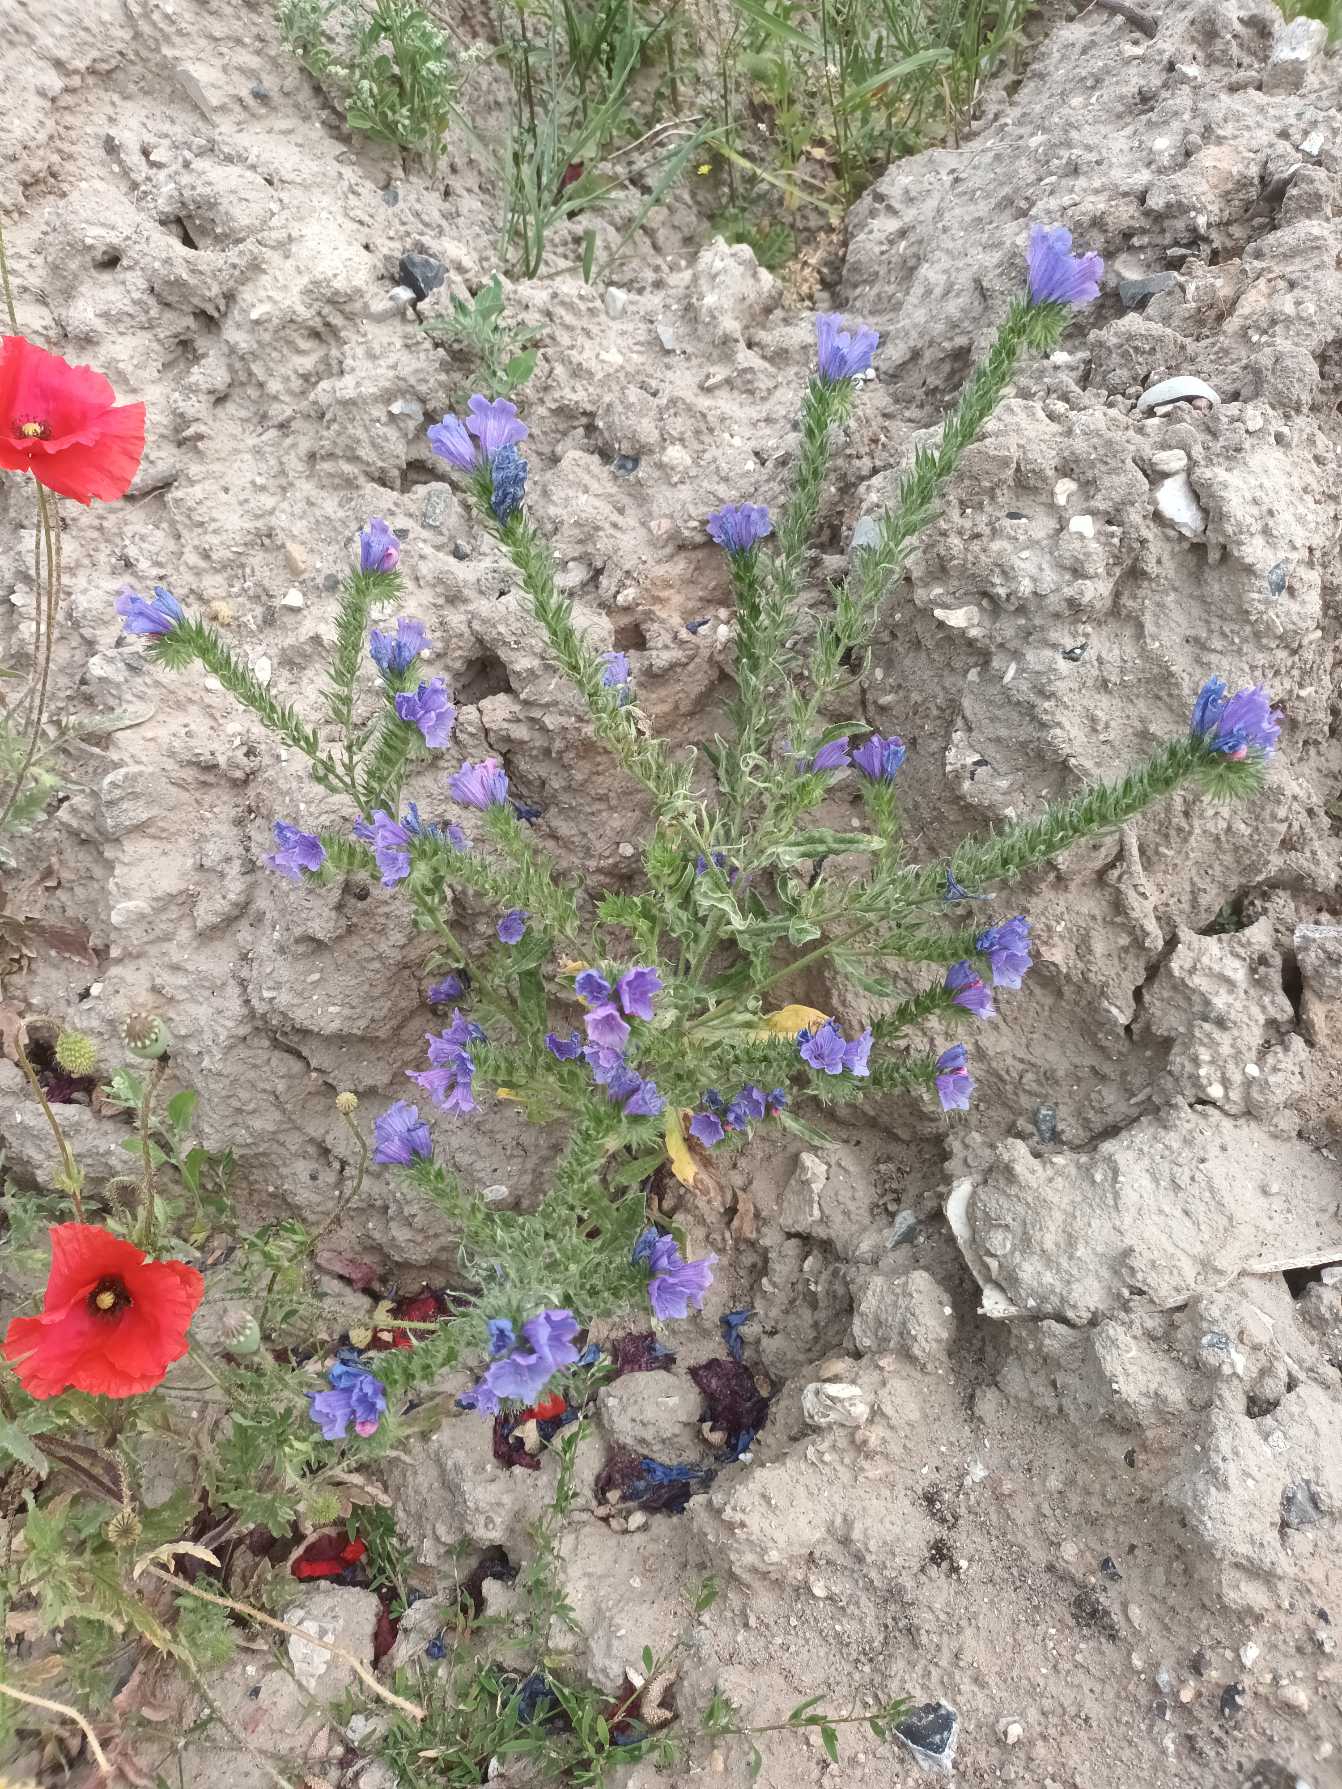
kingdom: Plantae
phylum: Tracheophyta
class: Magnoliopsida
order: Boraginales
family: Boraginaceae
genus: Echium
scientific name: Echium plantagineum
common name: Vejbred-slangehoved
